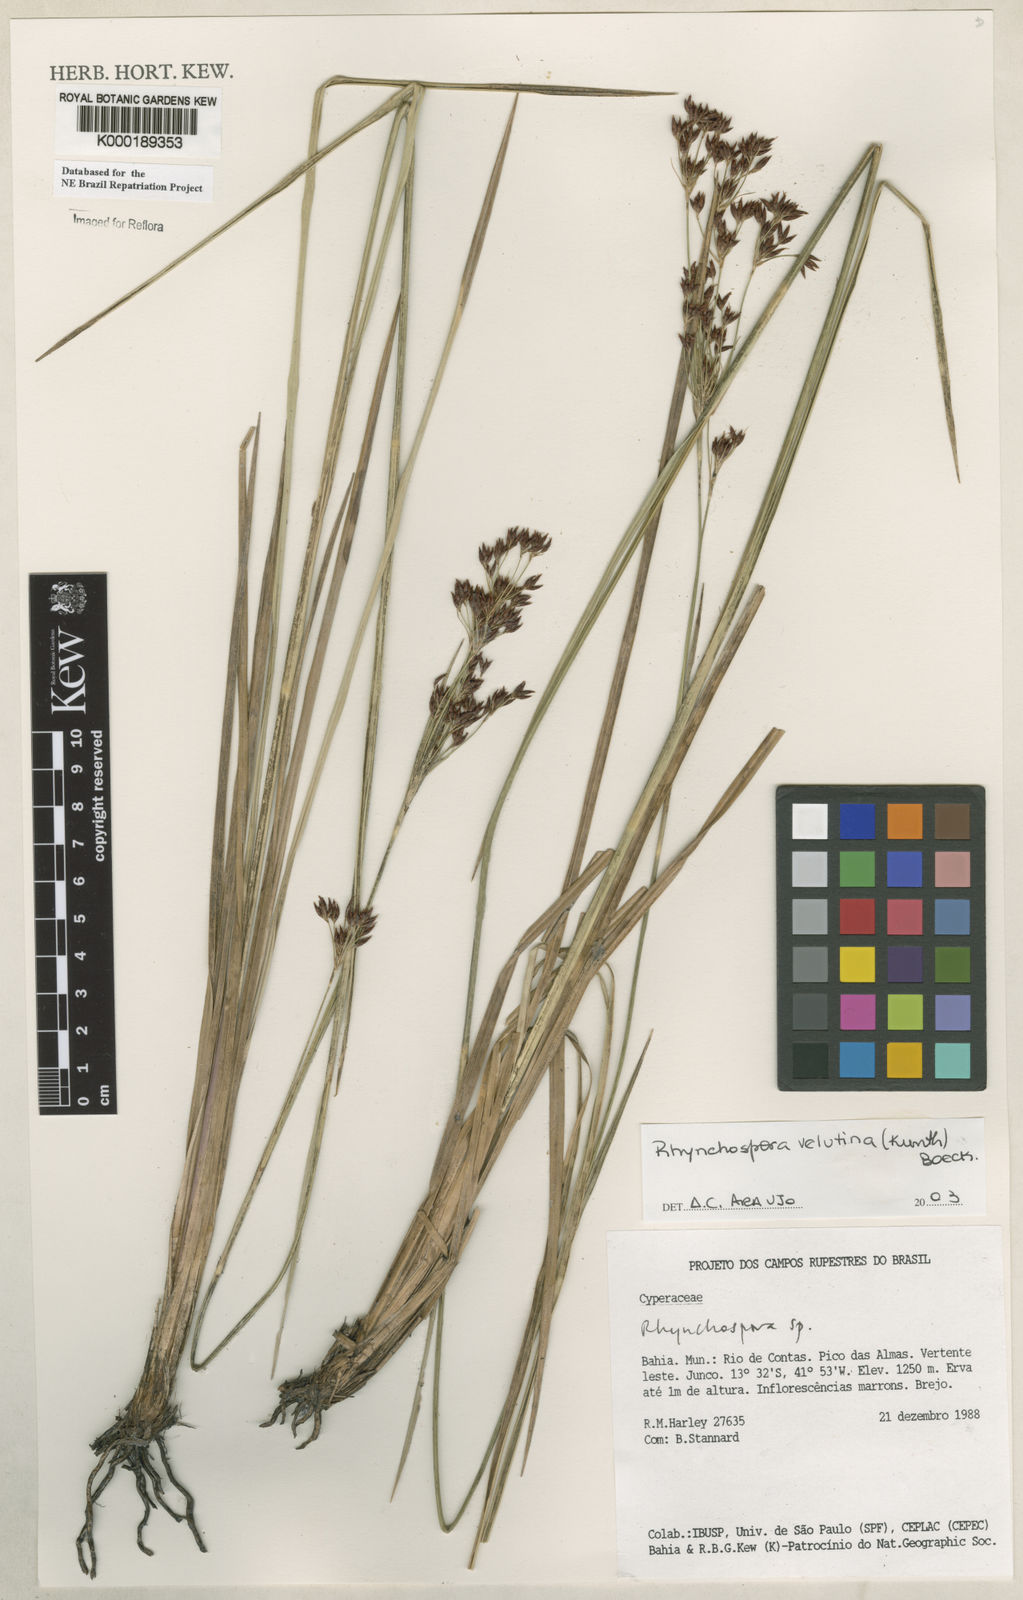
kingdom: Plantae
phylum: Tracheophyta
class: Liliopsida
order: Poales
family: Cyperaceae
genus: Rhynchospora
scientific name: Rhynchospora ridleyi
